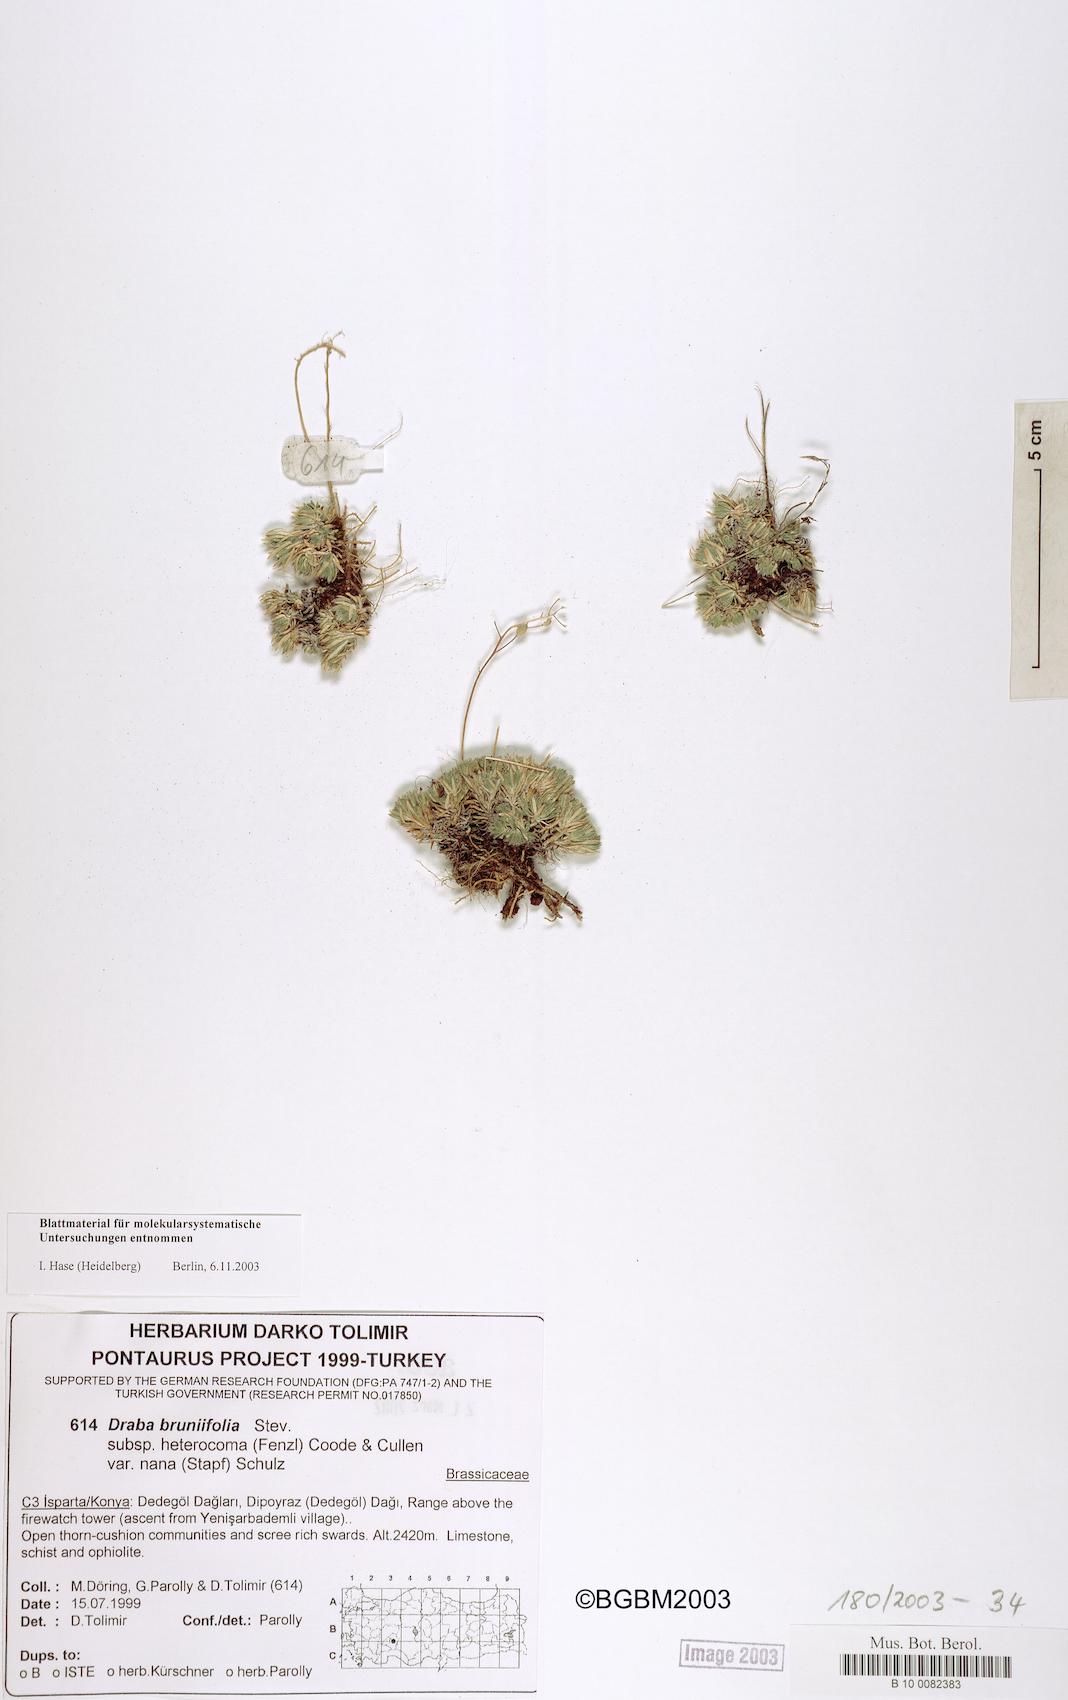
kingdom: Plantae
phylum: Tracheophyta
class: Magnoliopsida
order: Brassicales
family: Brassicaceae
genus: Draba
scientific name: Draba nana
